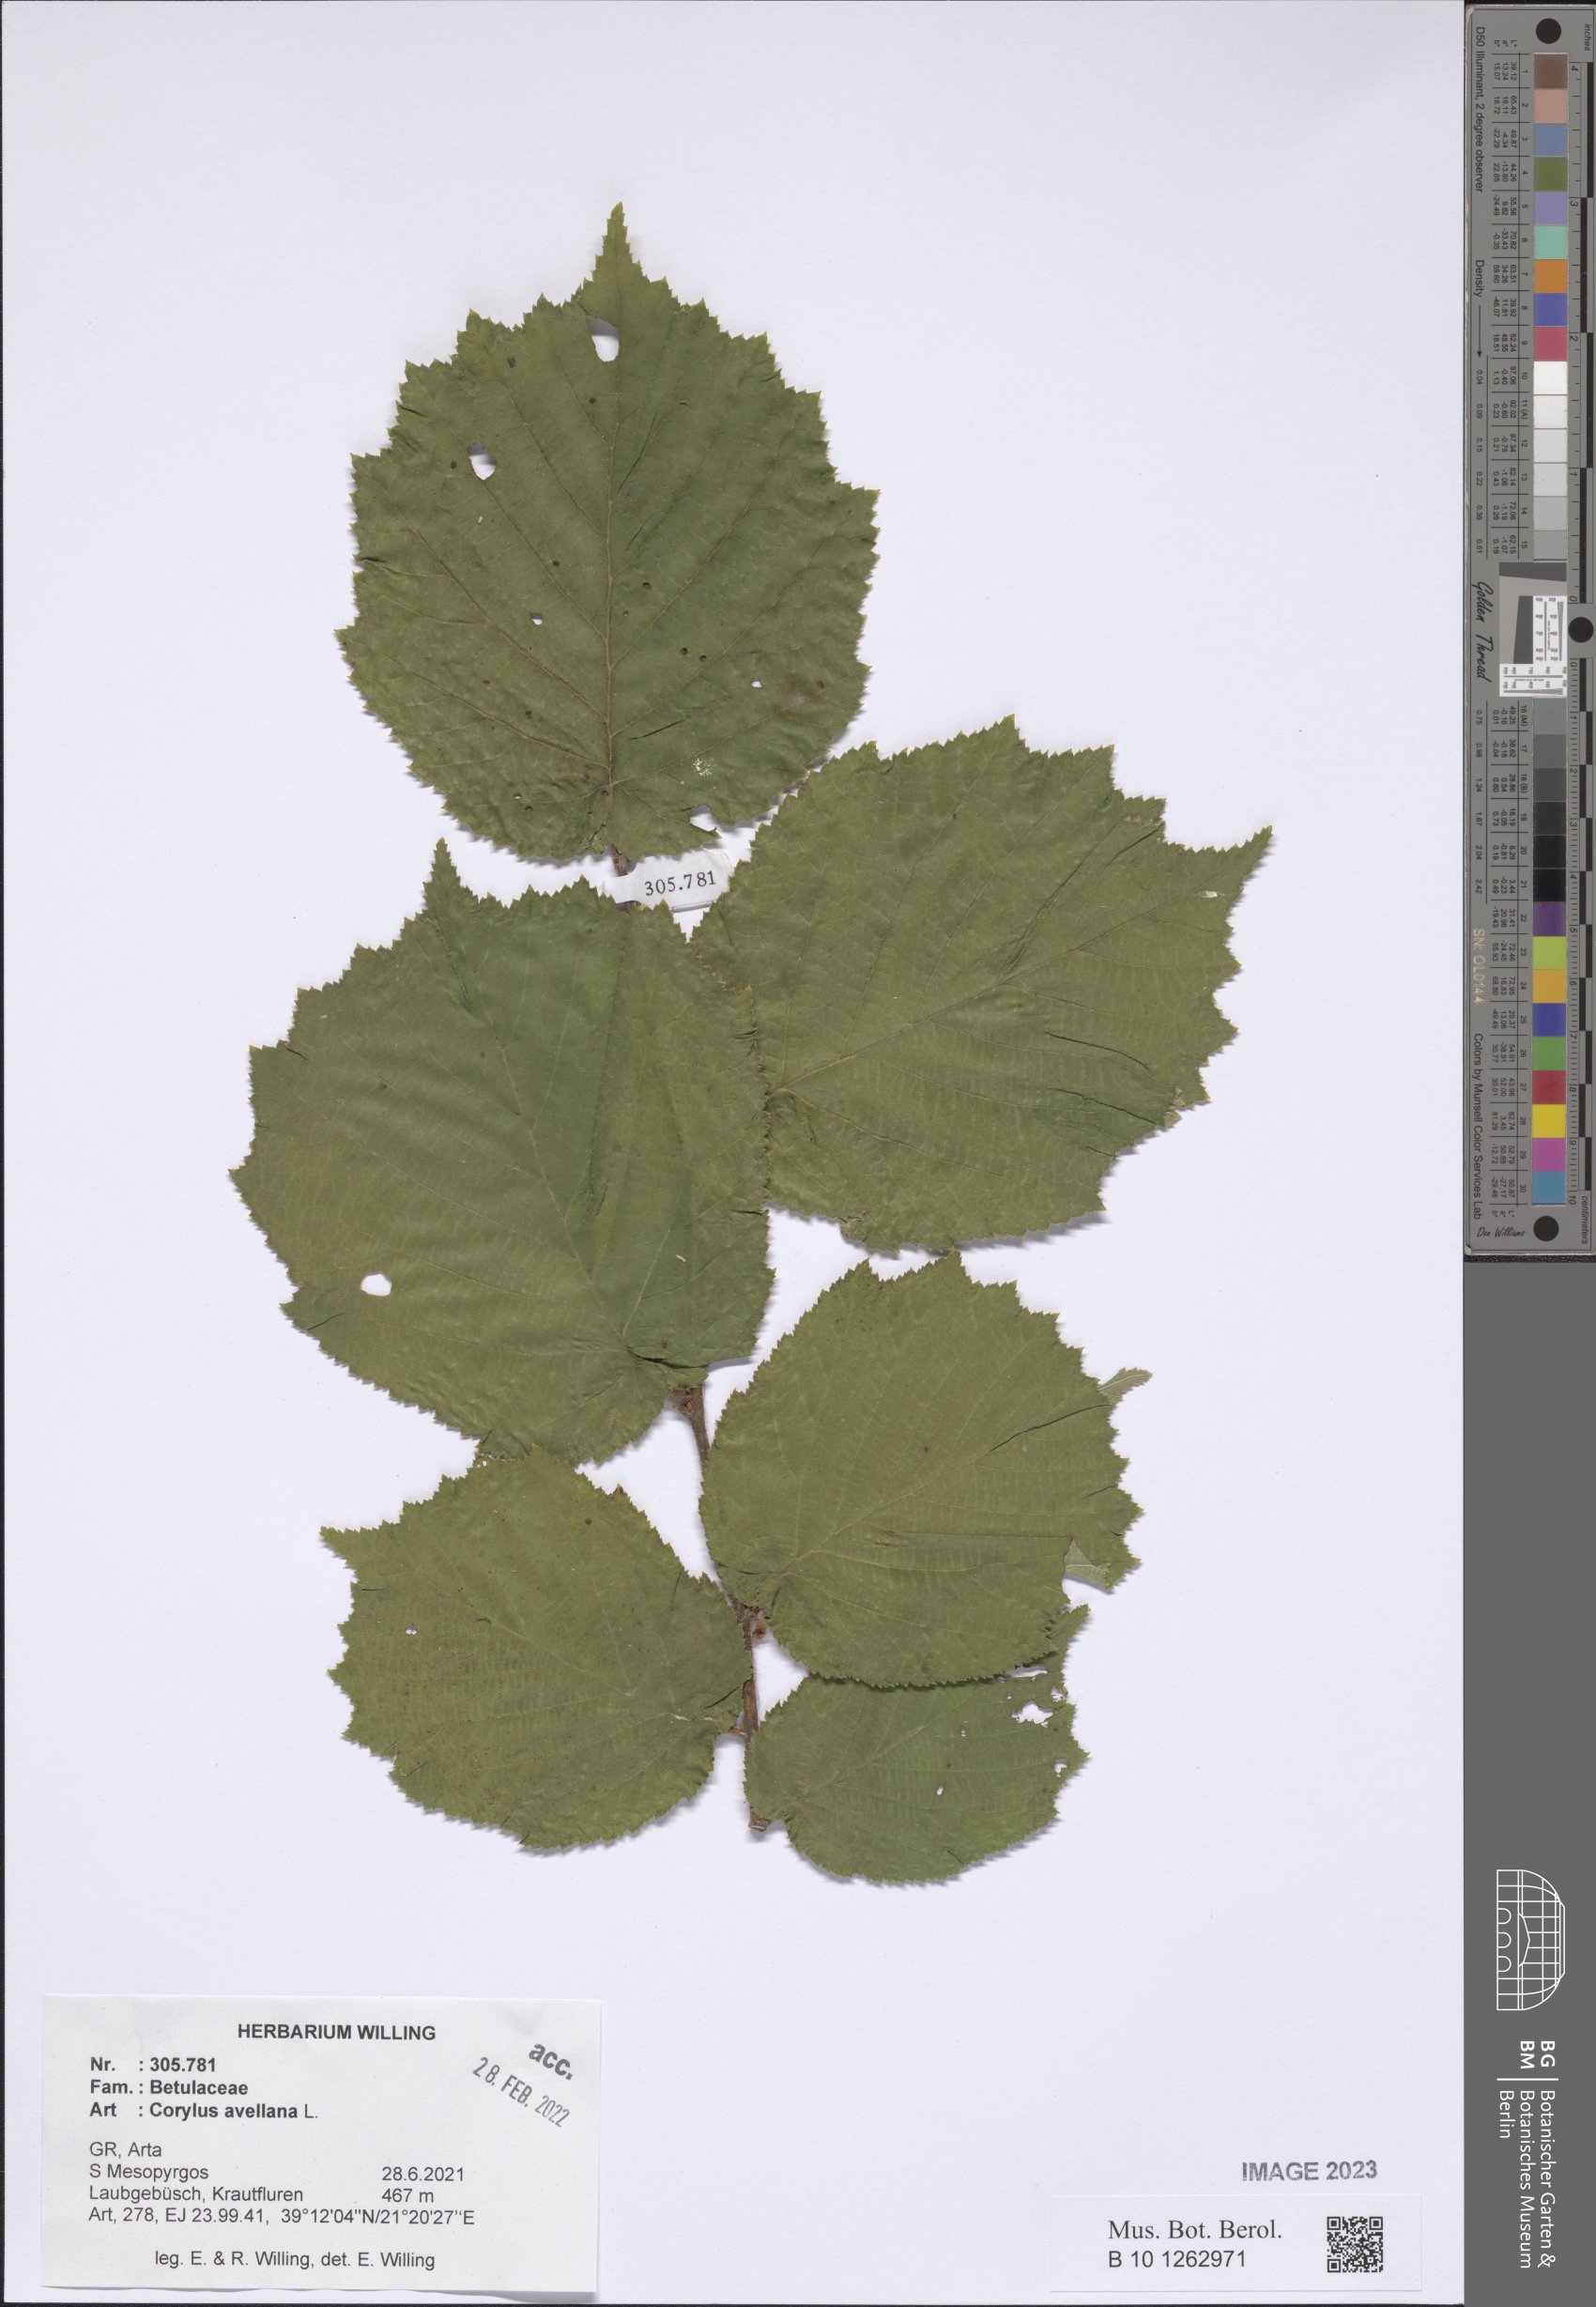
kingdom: Plantae
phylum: Tracheophyta
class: Magnoliopsida
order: Fagales
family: Betulaceae
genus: Corylus
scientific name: Corylus avellana
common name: European hazel
